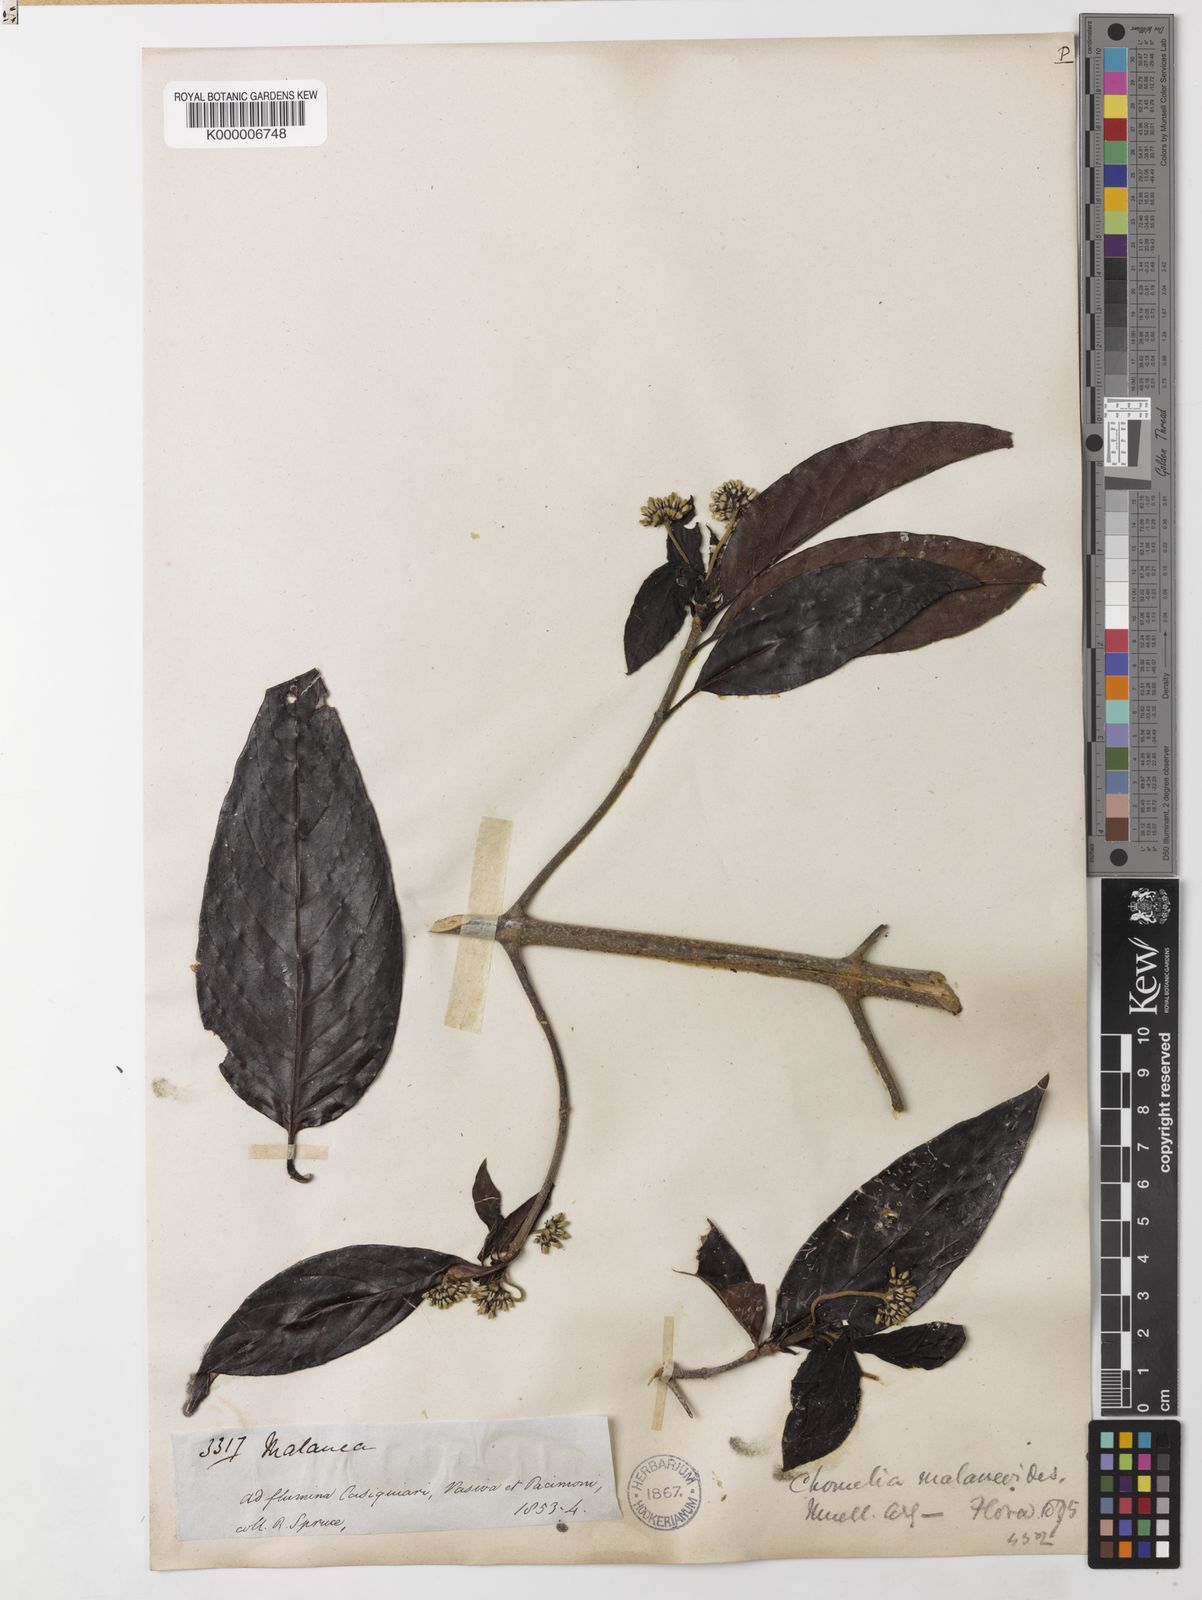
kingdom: Plantae
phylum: Tracheophyta
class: Magnoliopsida
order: Gentianales
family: Rubiaceae
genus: Chomelia
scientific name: Chomelia
